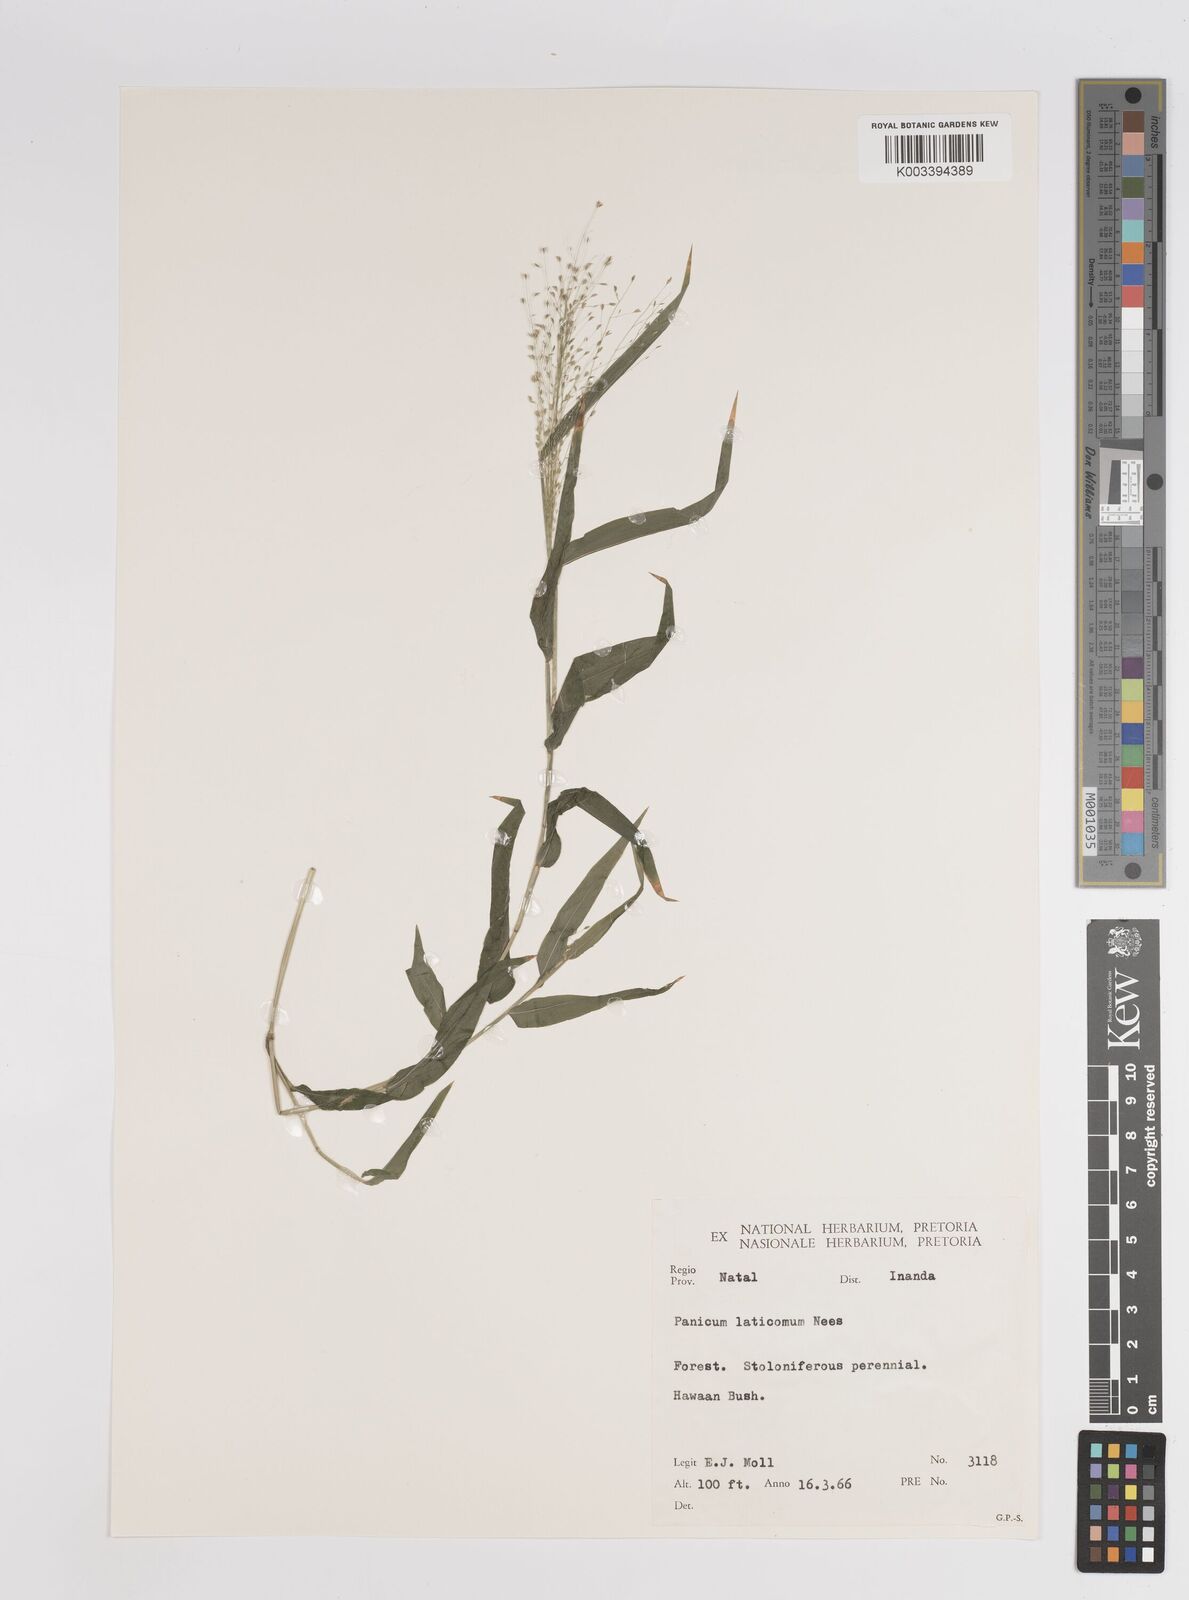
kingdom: Plantae
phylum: Tracheophyta
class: Liliopsida
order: Poales
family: Poaceae
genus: Panicum
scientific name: Panicum laticomum
